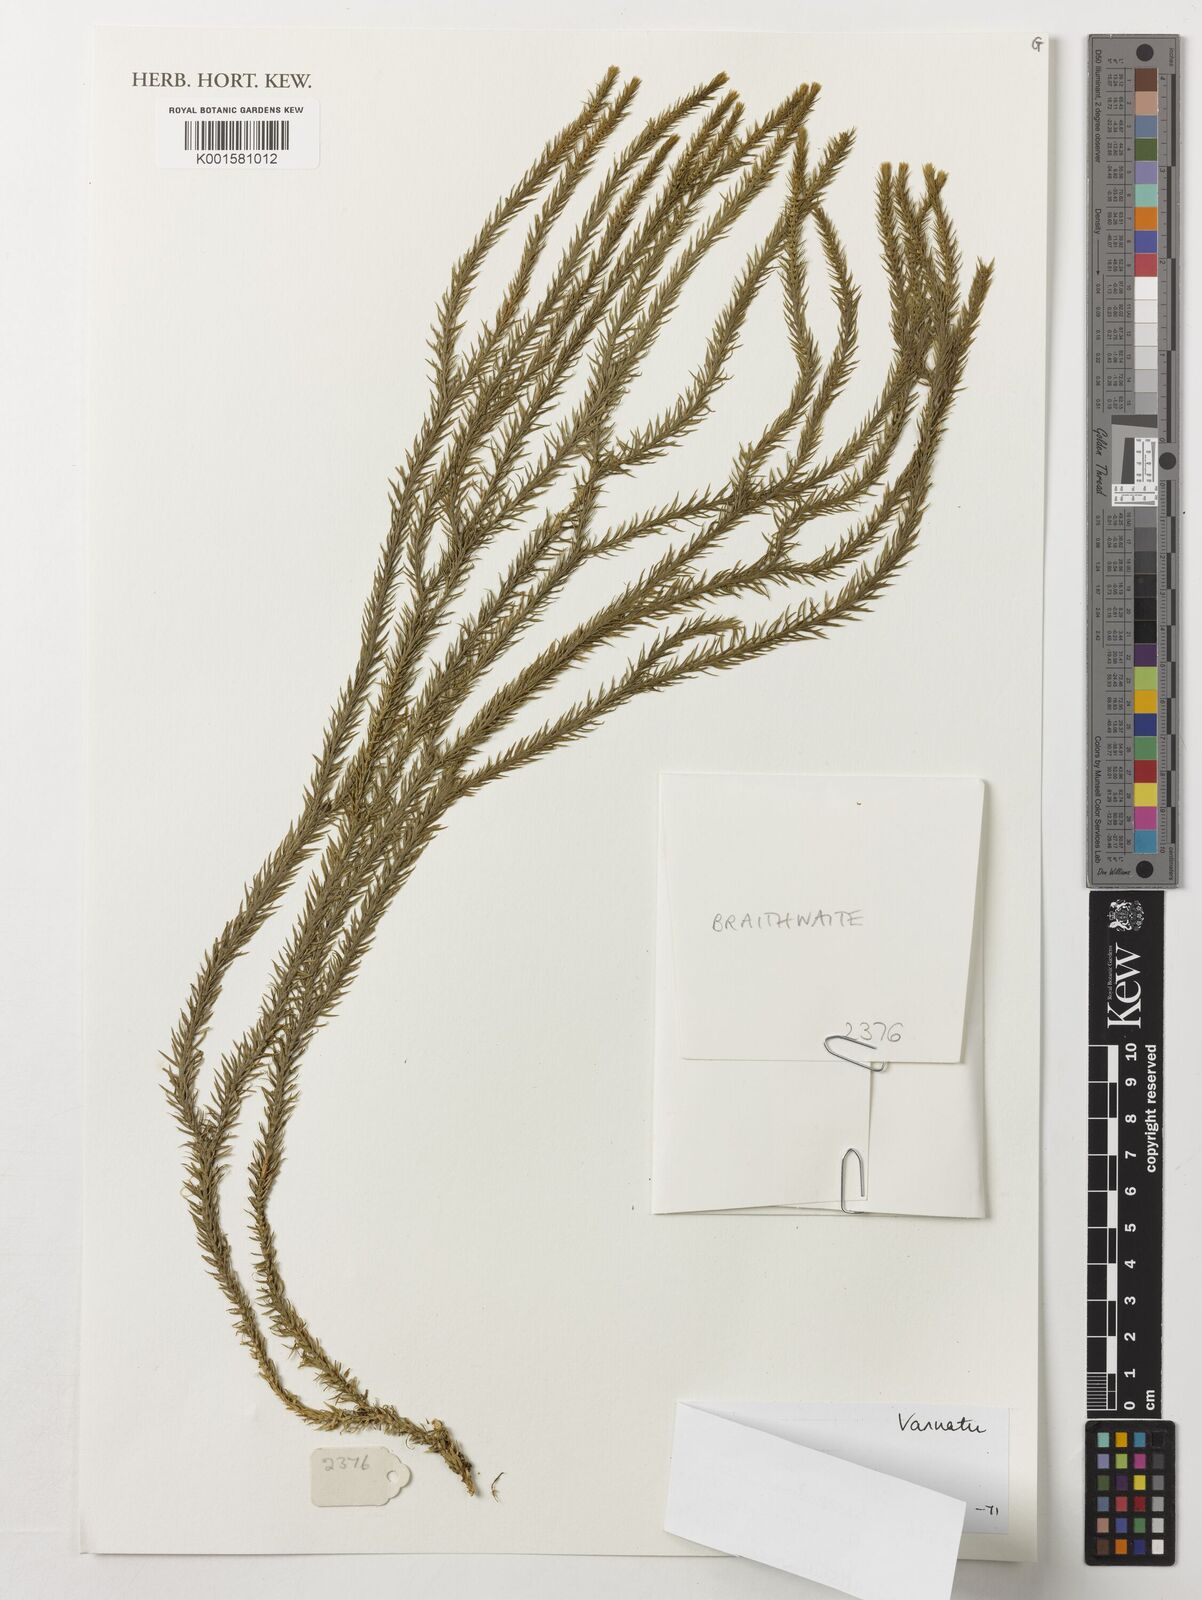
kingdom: Plantae
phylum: Tracheophyta
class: Lycopodiopsida
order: Lycopodiales
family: Lycopodiaceae
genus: Phlegmariurus
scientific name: Phlegmariurus parksii
